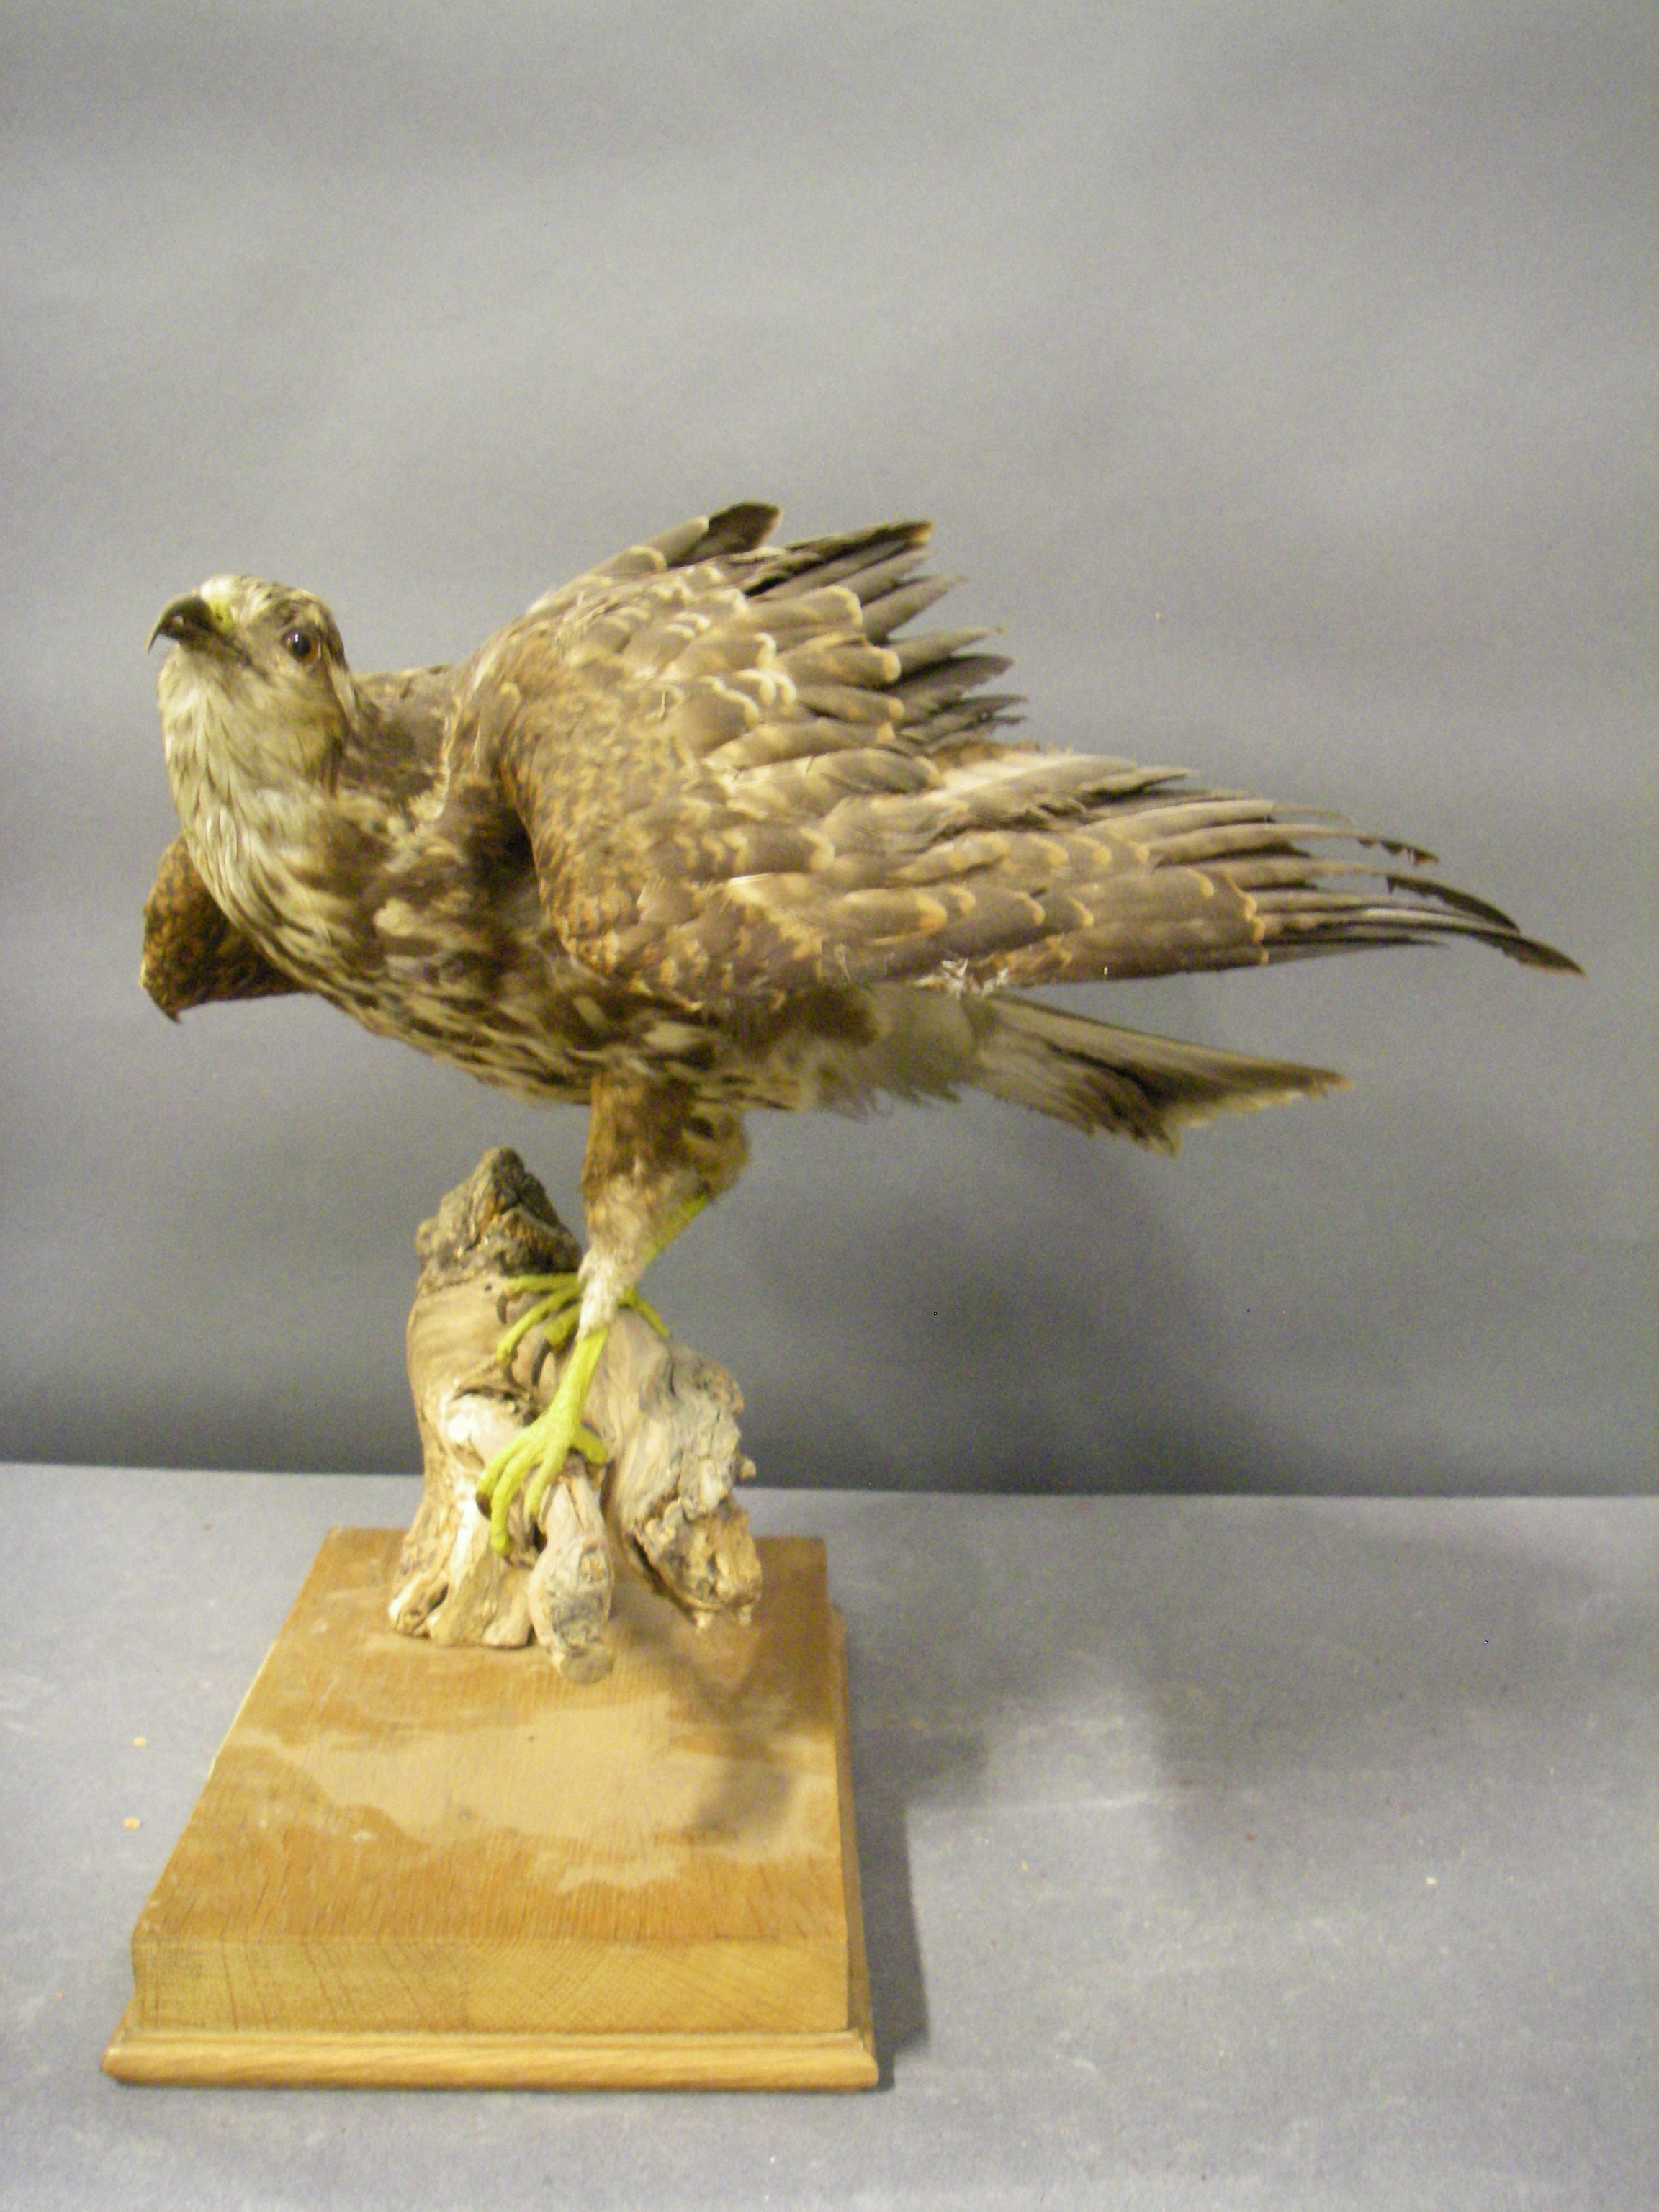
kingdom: Animalia
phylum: Chordata
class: Aves
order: Accipitriformes
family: Accipitridae
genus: Rostrhamus
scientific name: Rostrhamus sociabilis
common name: Snail kite
